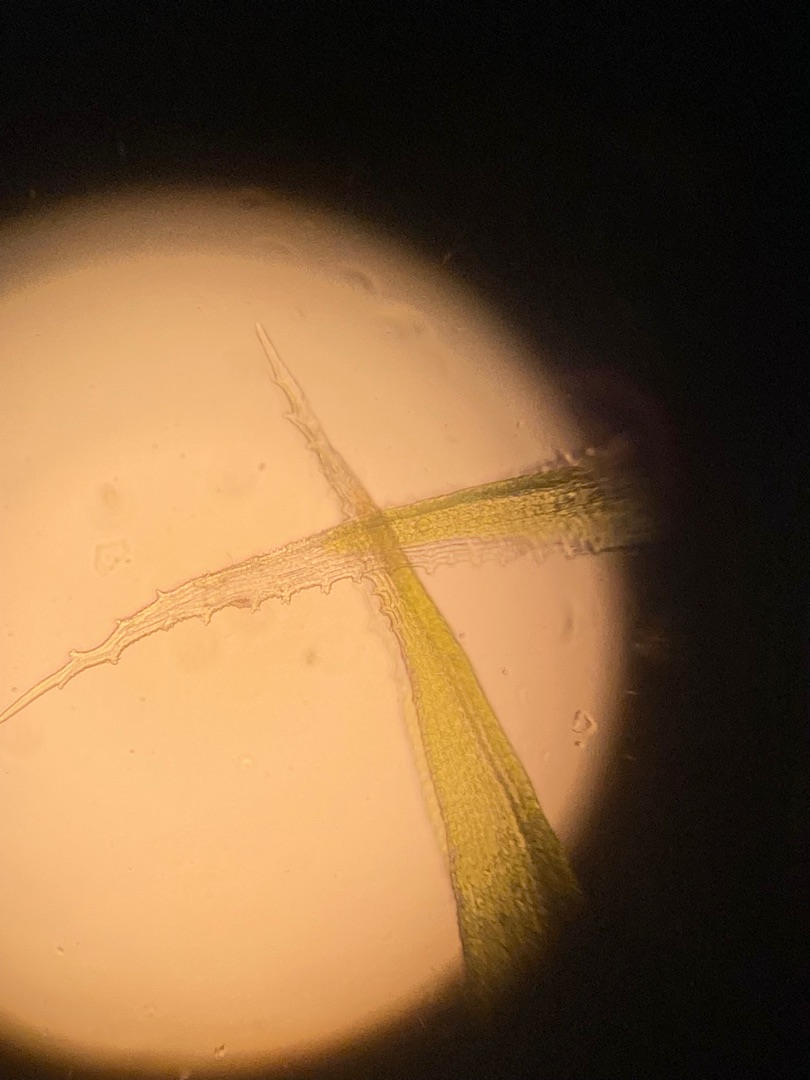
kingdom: Plantae
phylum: Bryophyta
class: Bryopsida
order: Grimmiales
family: Grimmiaceae
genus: Racomitrium
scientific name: Racomitrium lanuginosum
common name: Stor børstemos
